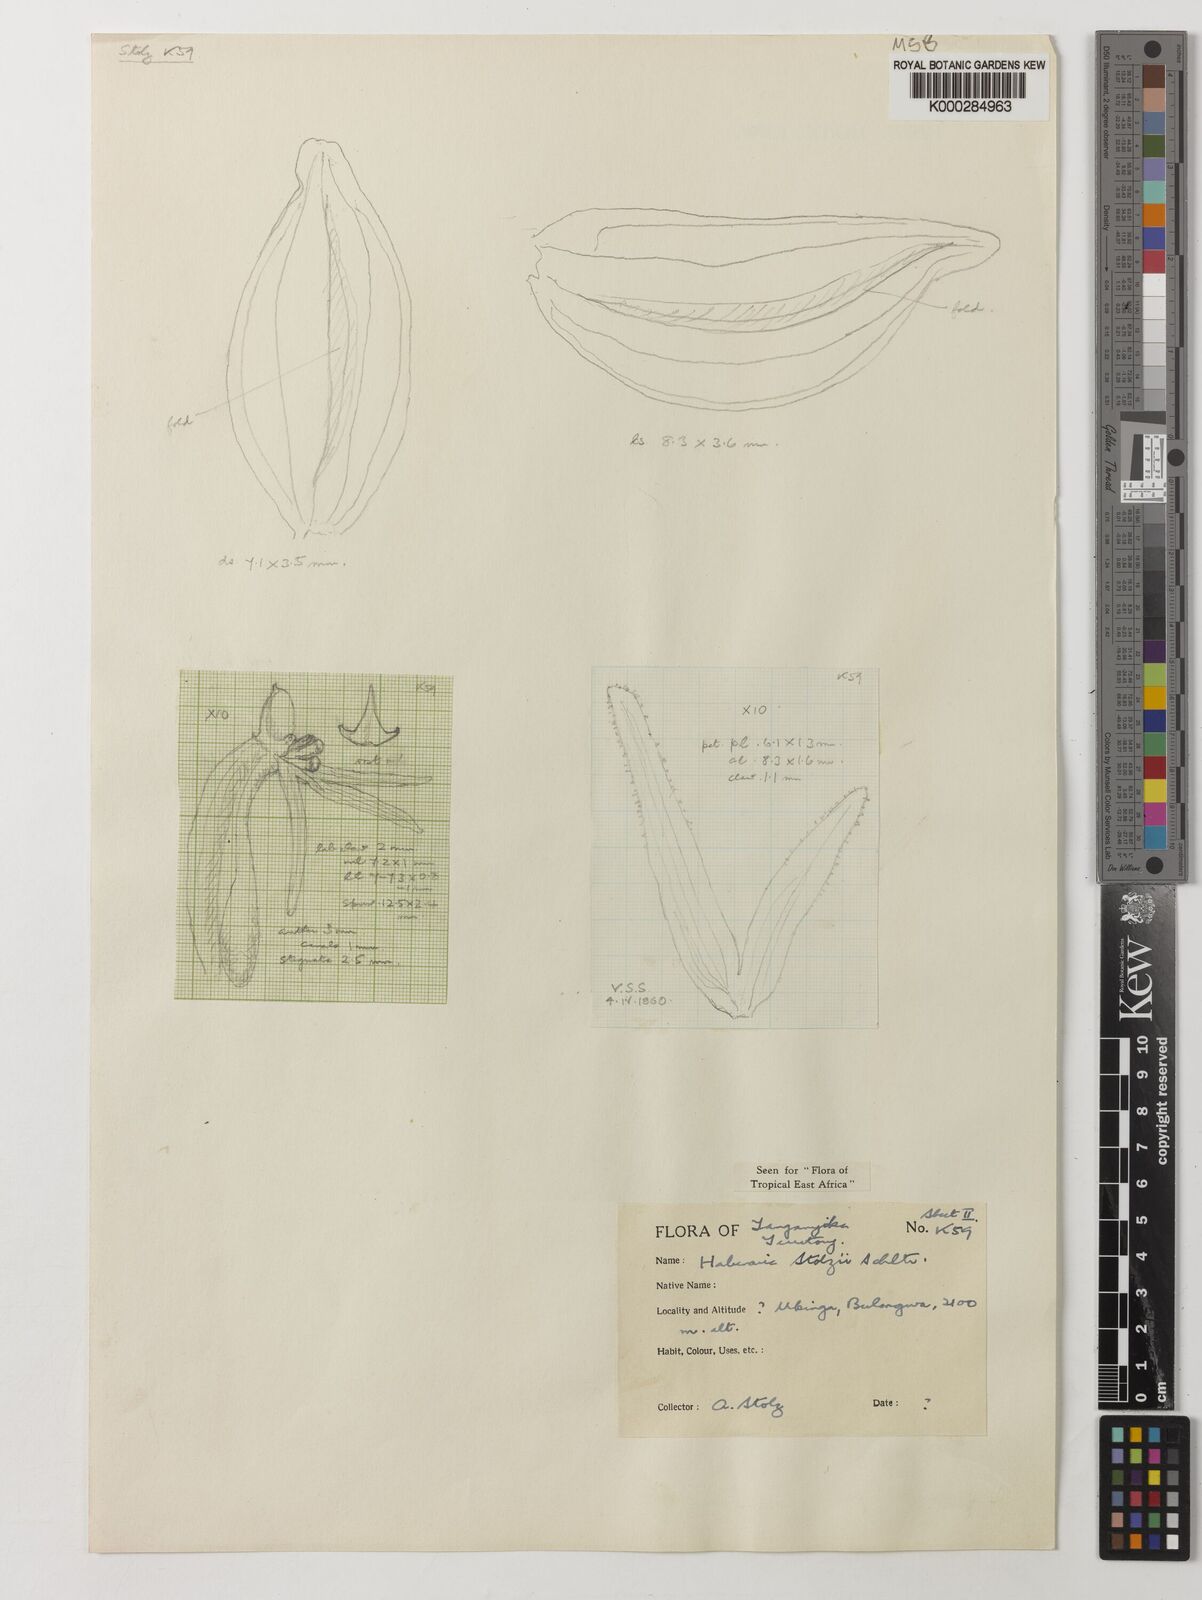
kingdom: Plantae
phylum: Tracheophyta
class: Liliopsida
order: Asparagales
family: Orchidaceae
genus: Habenaria
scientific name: Habenaria stolzii
